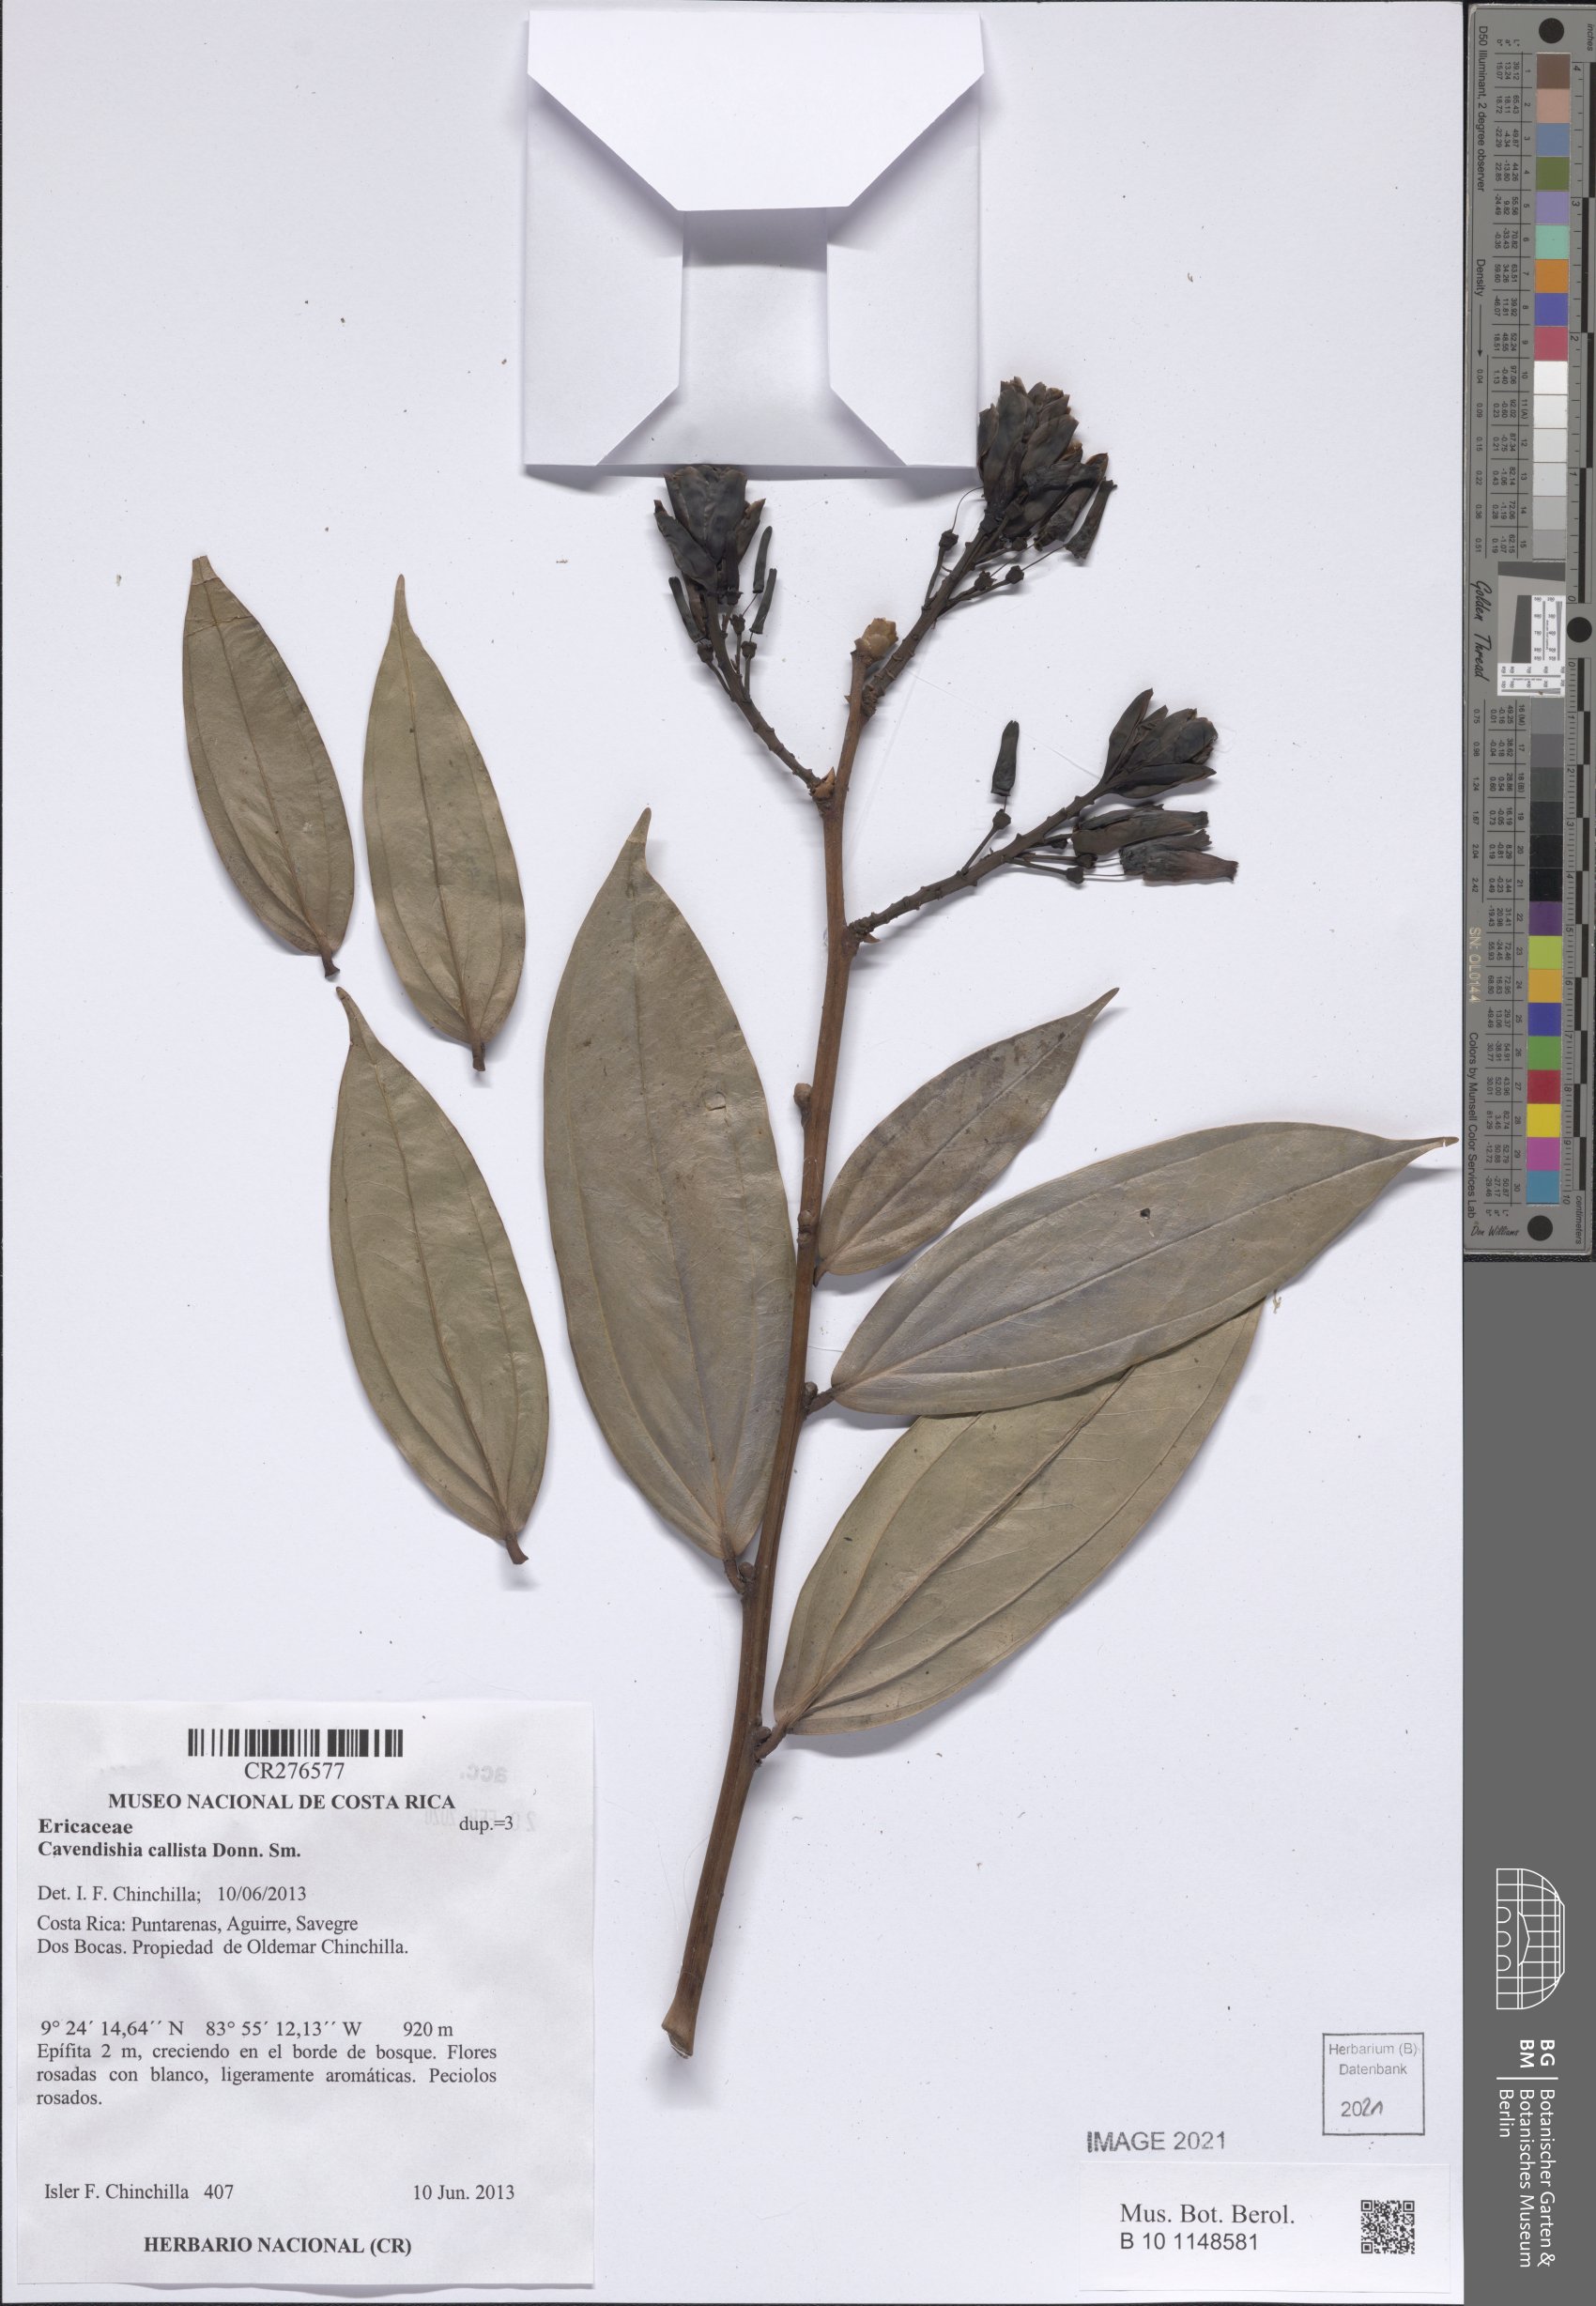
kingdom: Plantae
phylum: Tracheophyta
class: Magnoliopsida
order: Ericales
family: Ericaceae
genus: Cavendishia
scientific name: Cavendishia callista
